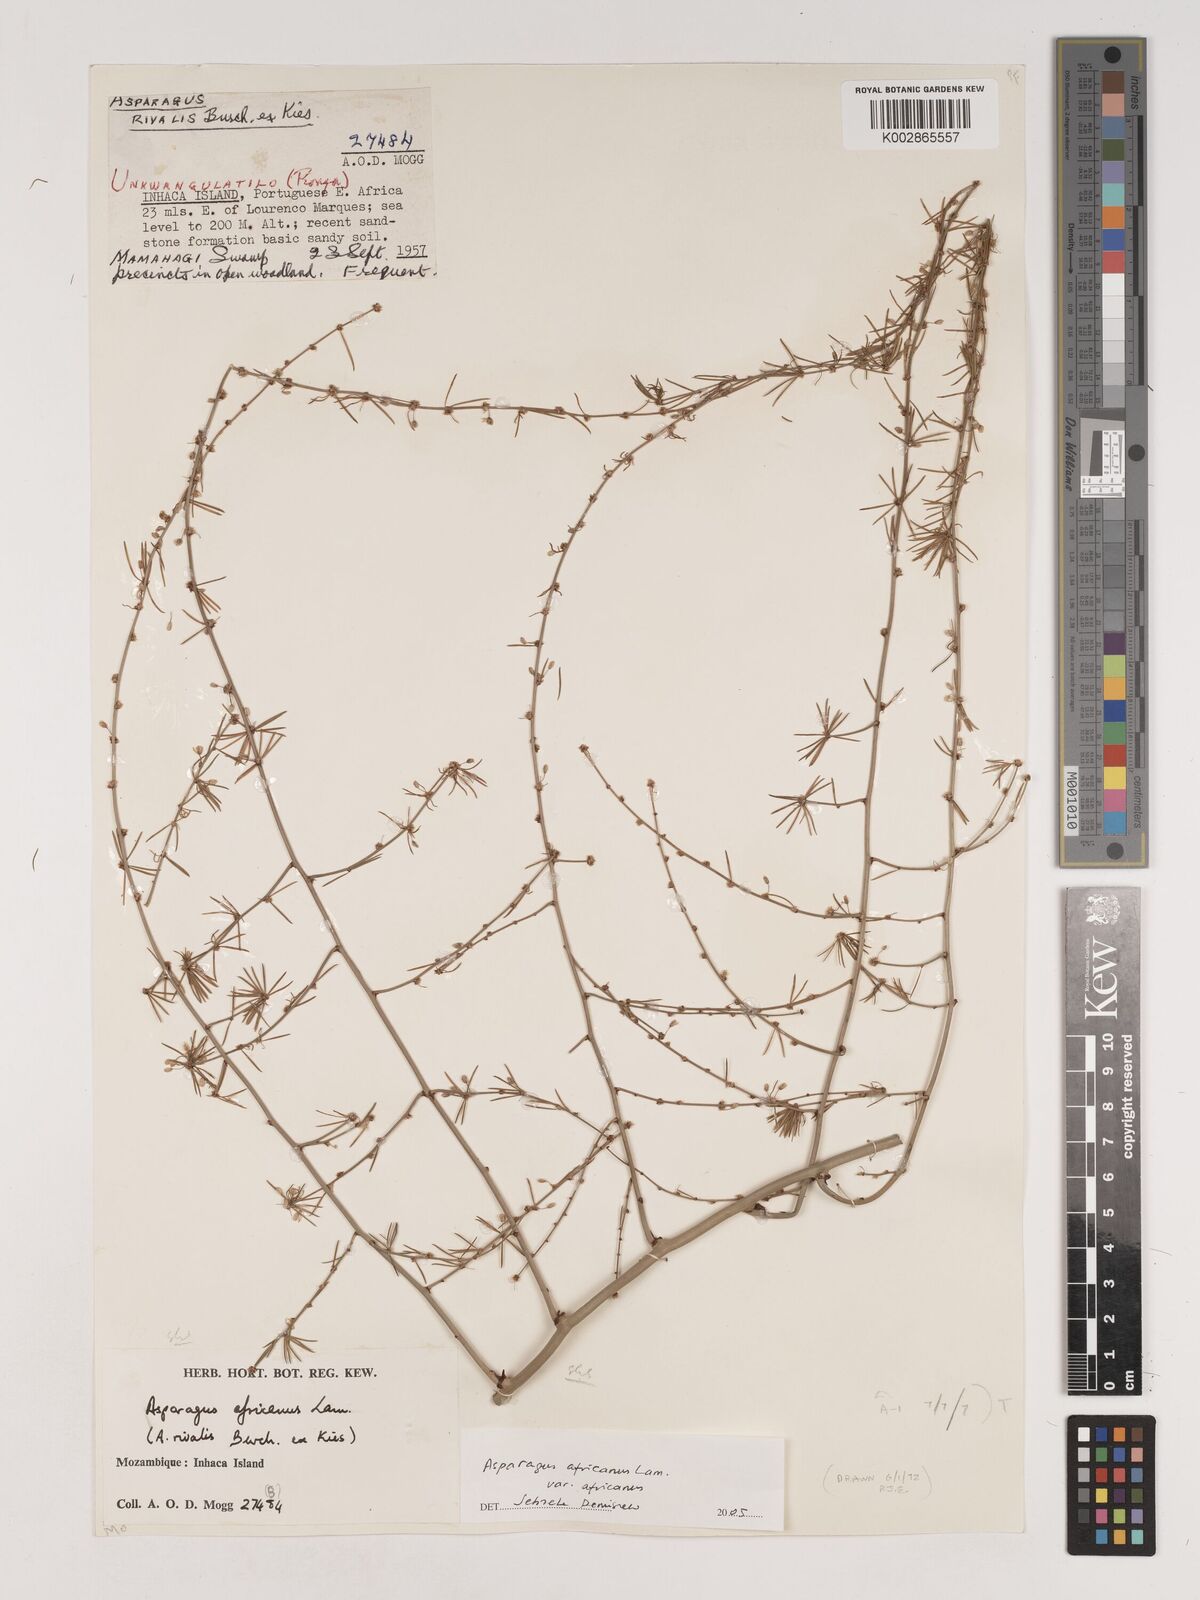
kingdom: Plantae
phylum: Tracheophyta
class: Liliopsida
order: Asparagales
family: Asparagaceae
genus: Asparagus
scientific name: Asparagus africanus
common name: Asparagus-fern
